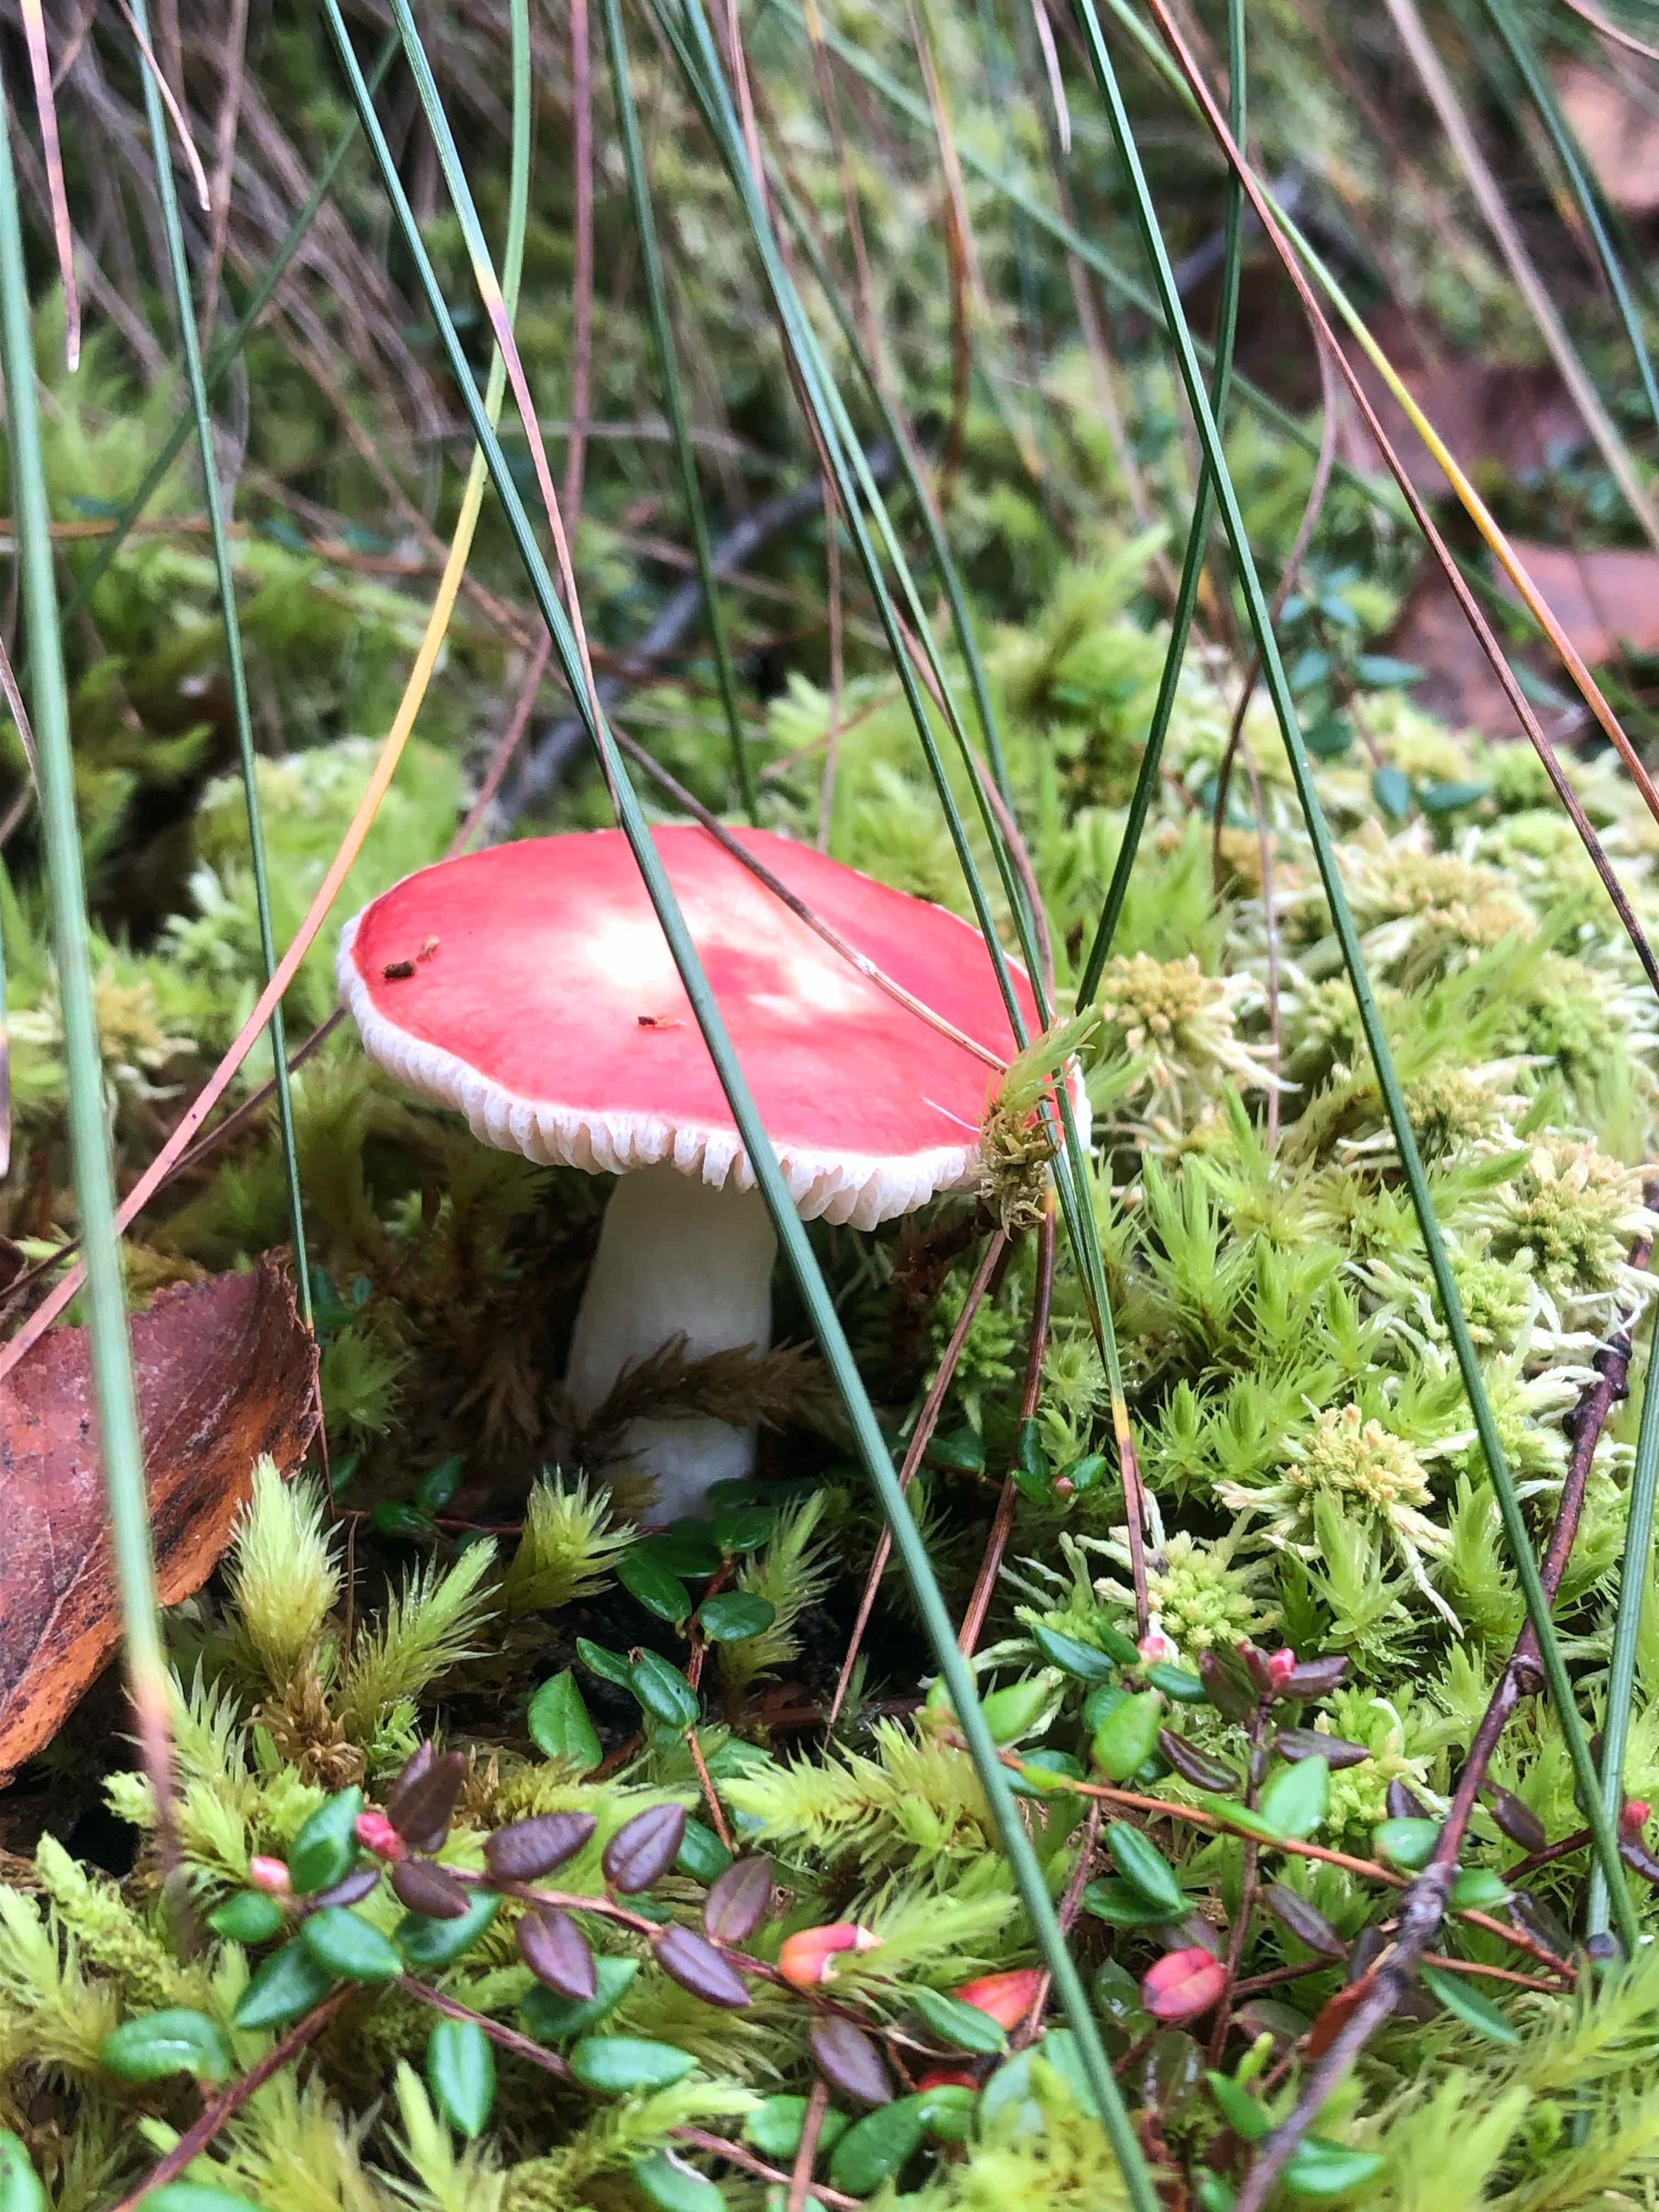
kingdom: Fungi
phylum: Basidiomycota
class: Agaricomycetes
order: Russulales
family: Russulaceae
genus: Russula
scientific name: Russula emetica
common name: stor gift-skørhat
